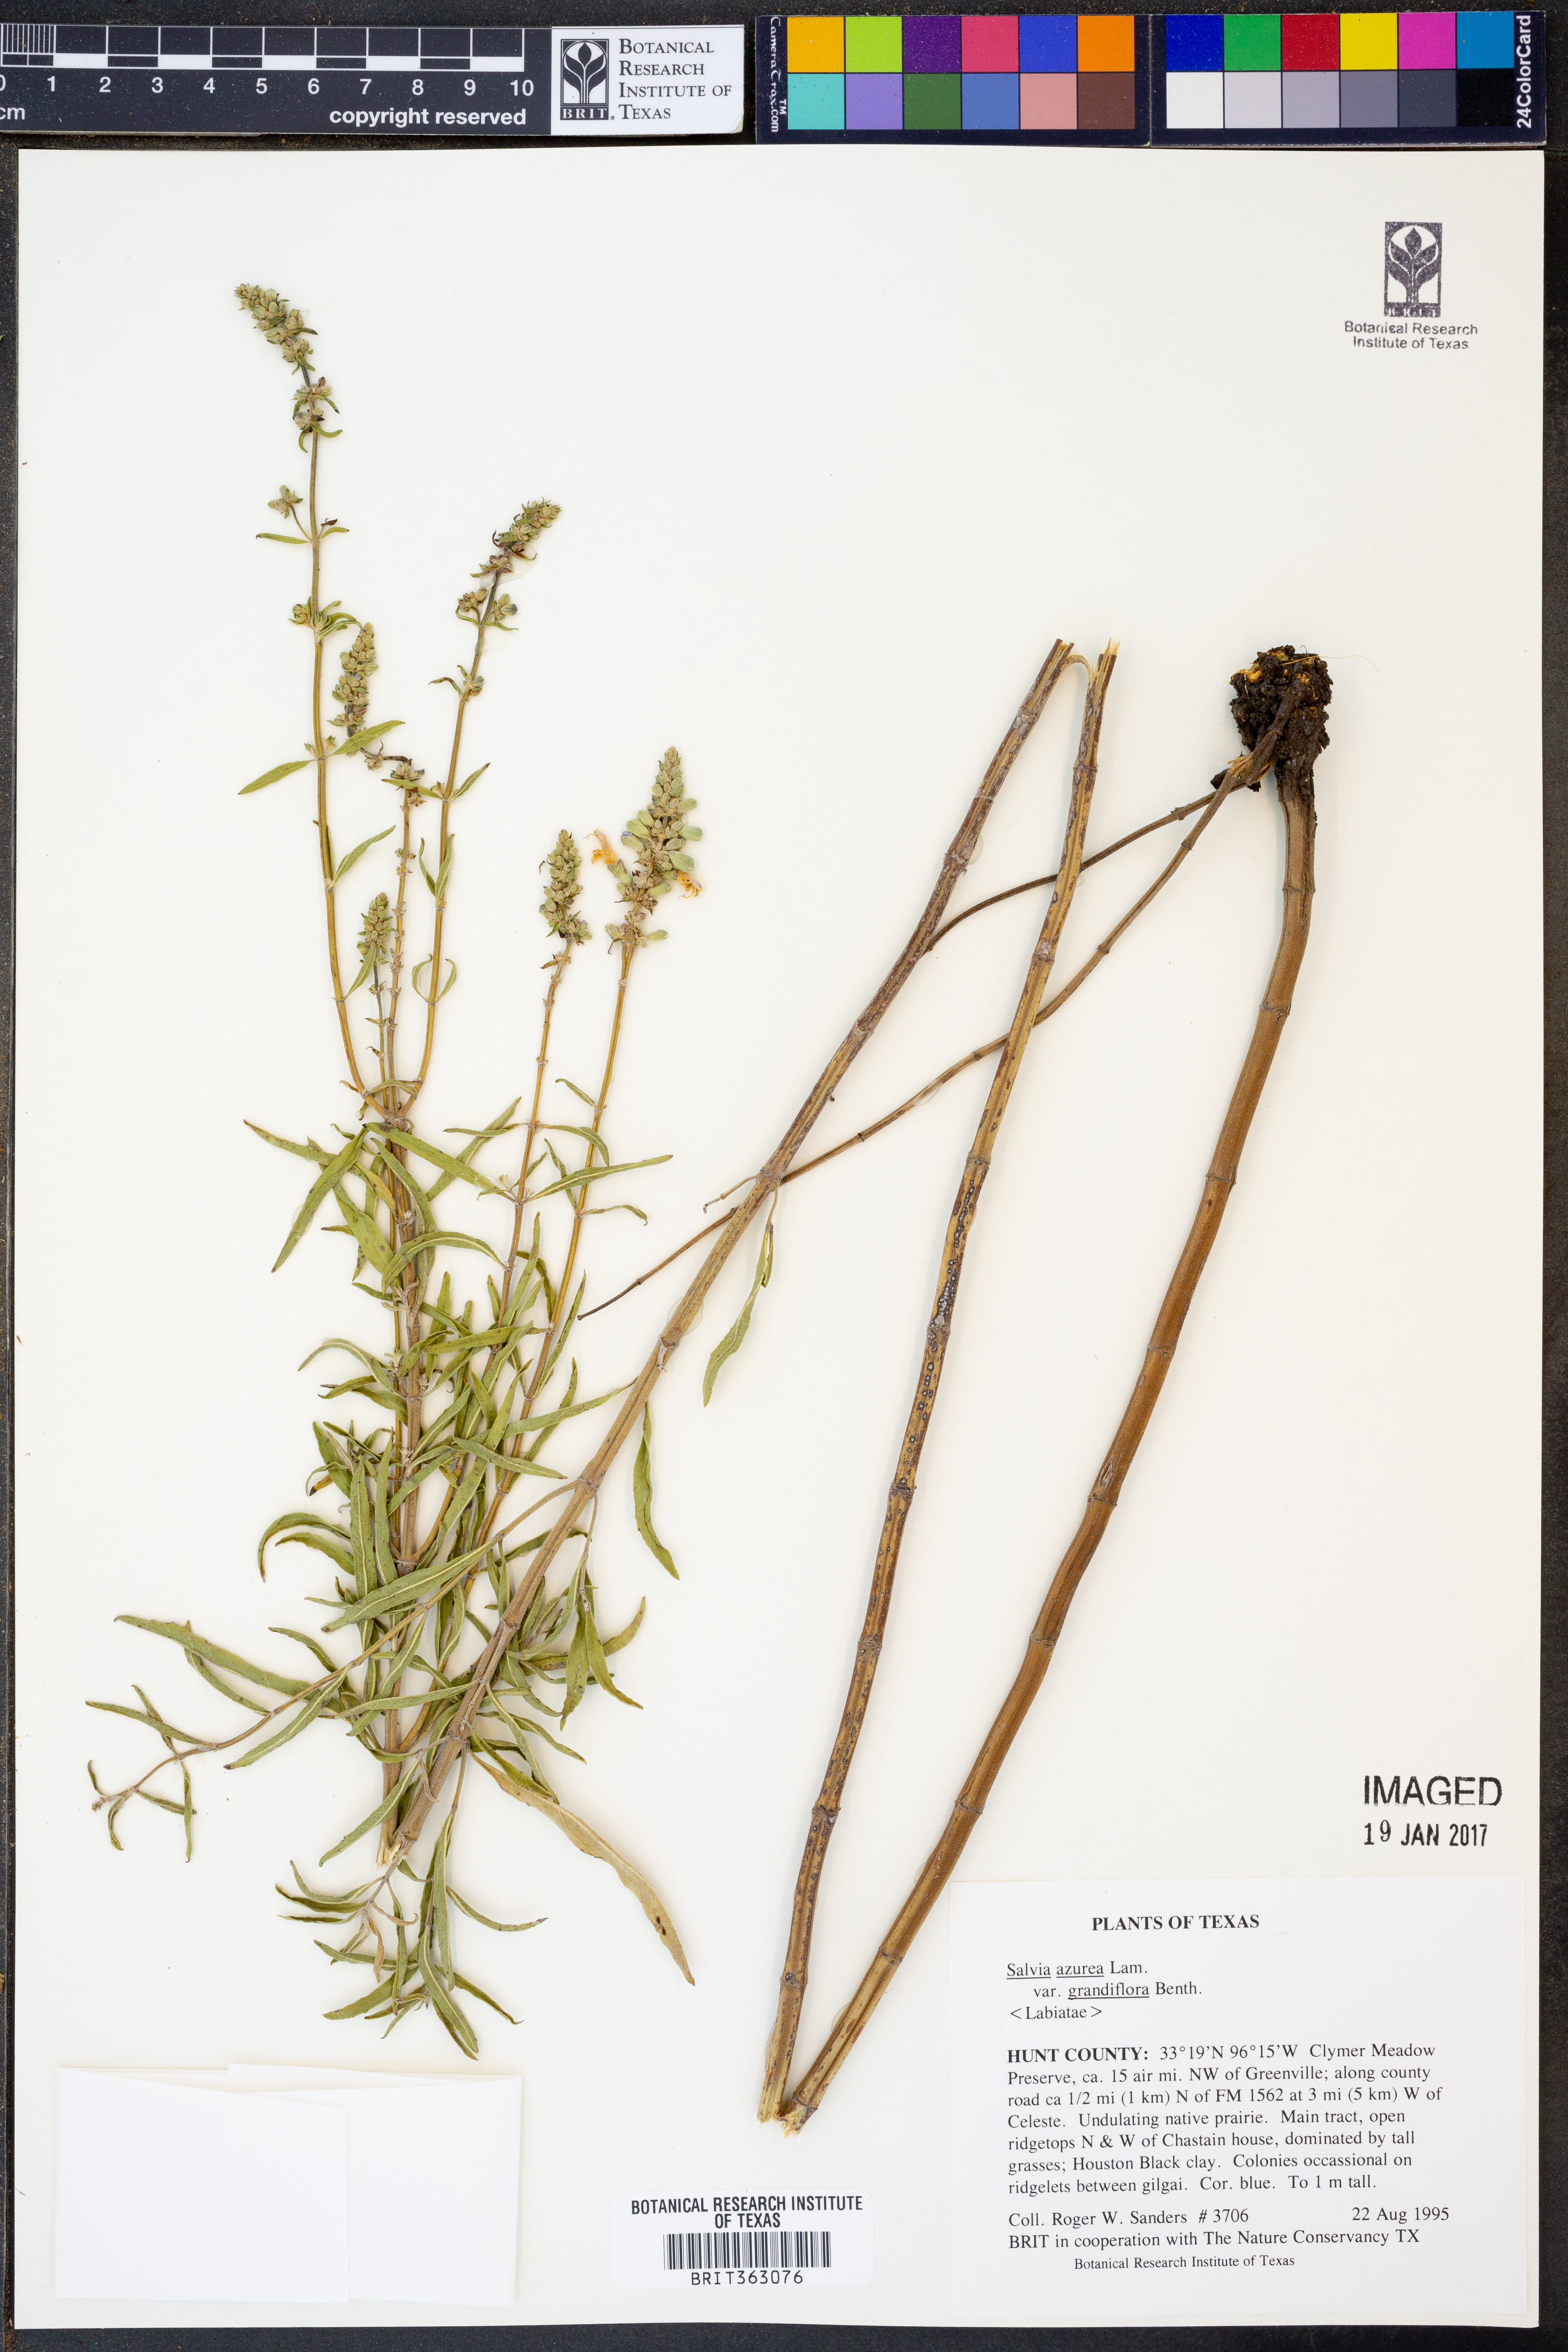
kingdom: Plantae
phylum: Tracheophyta
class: Magnoliopsida
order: Lamiales
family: Lamiaceae
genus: Salvia
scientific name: Salvia azurea
